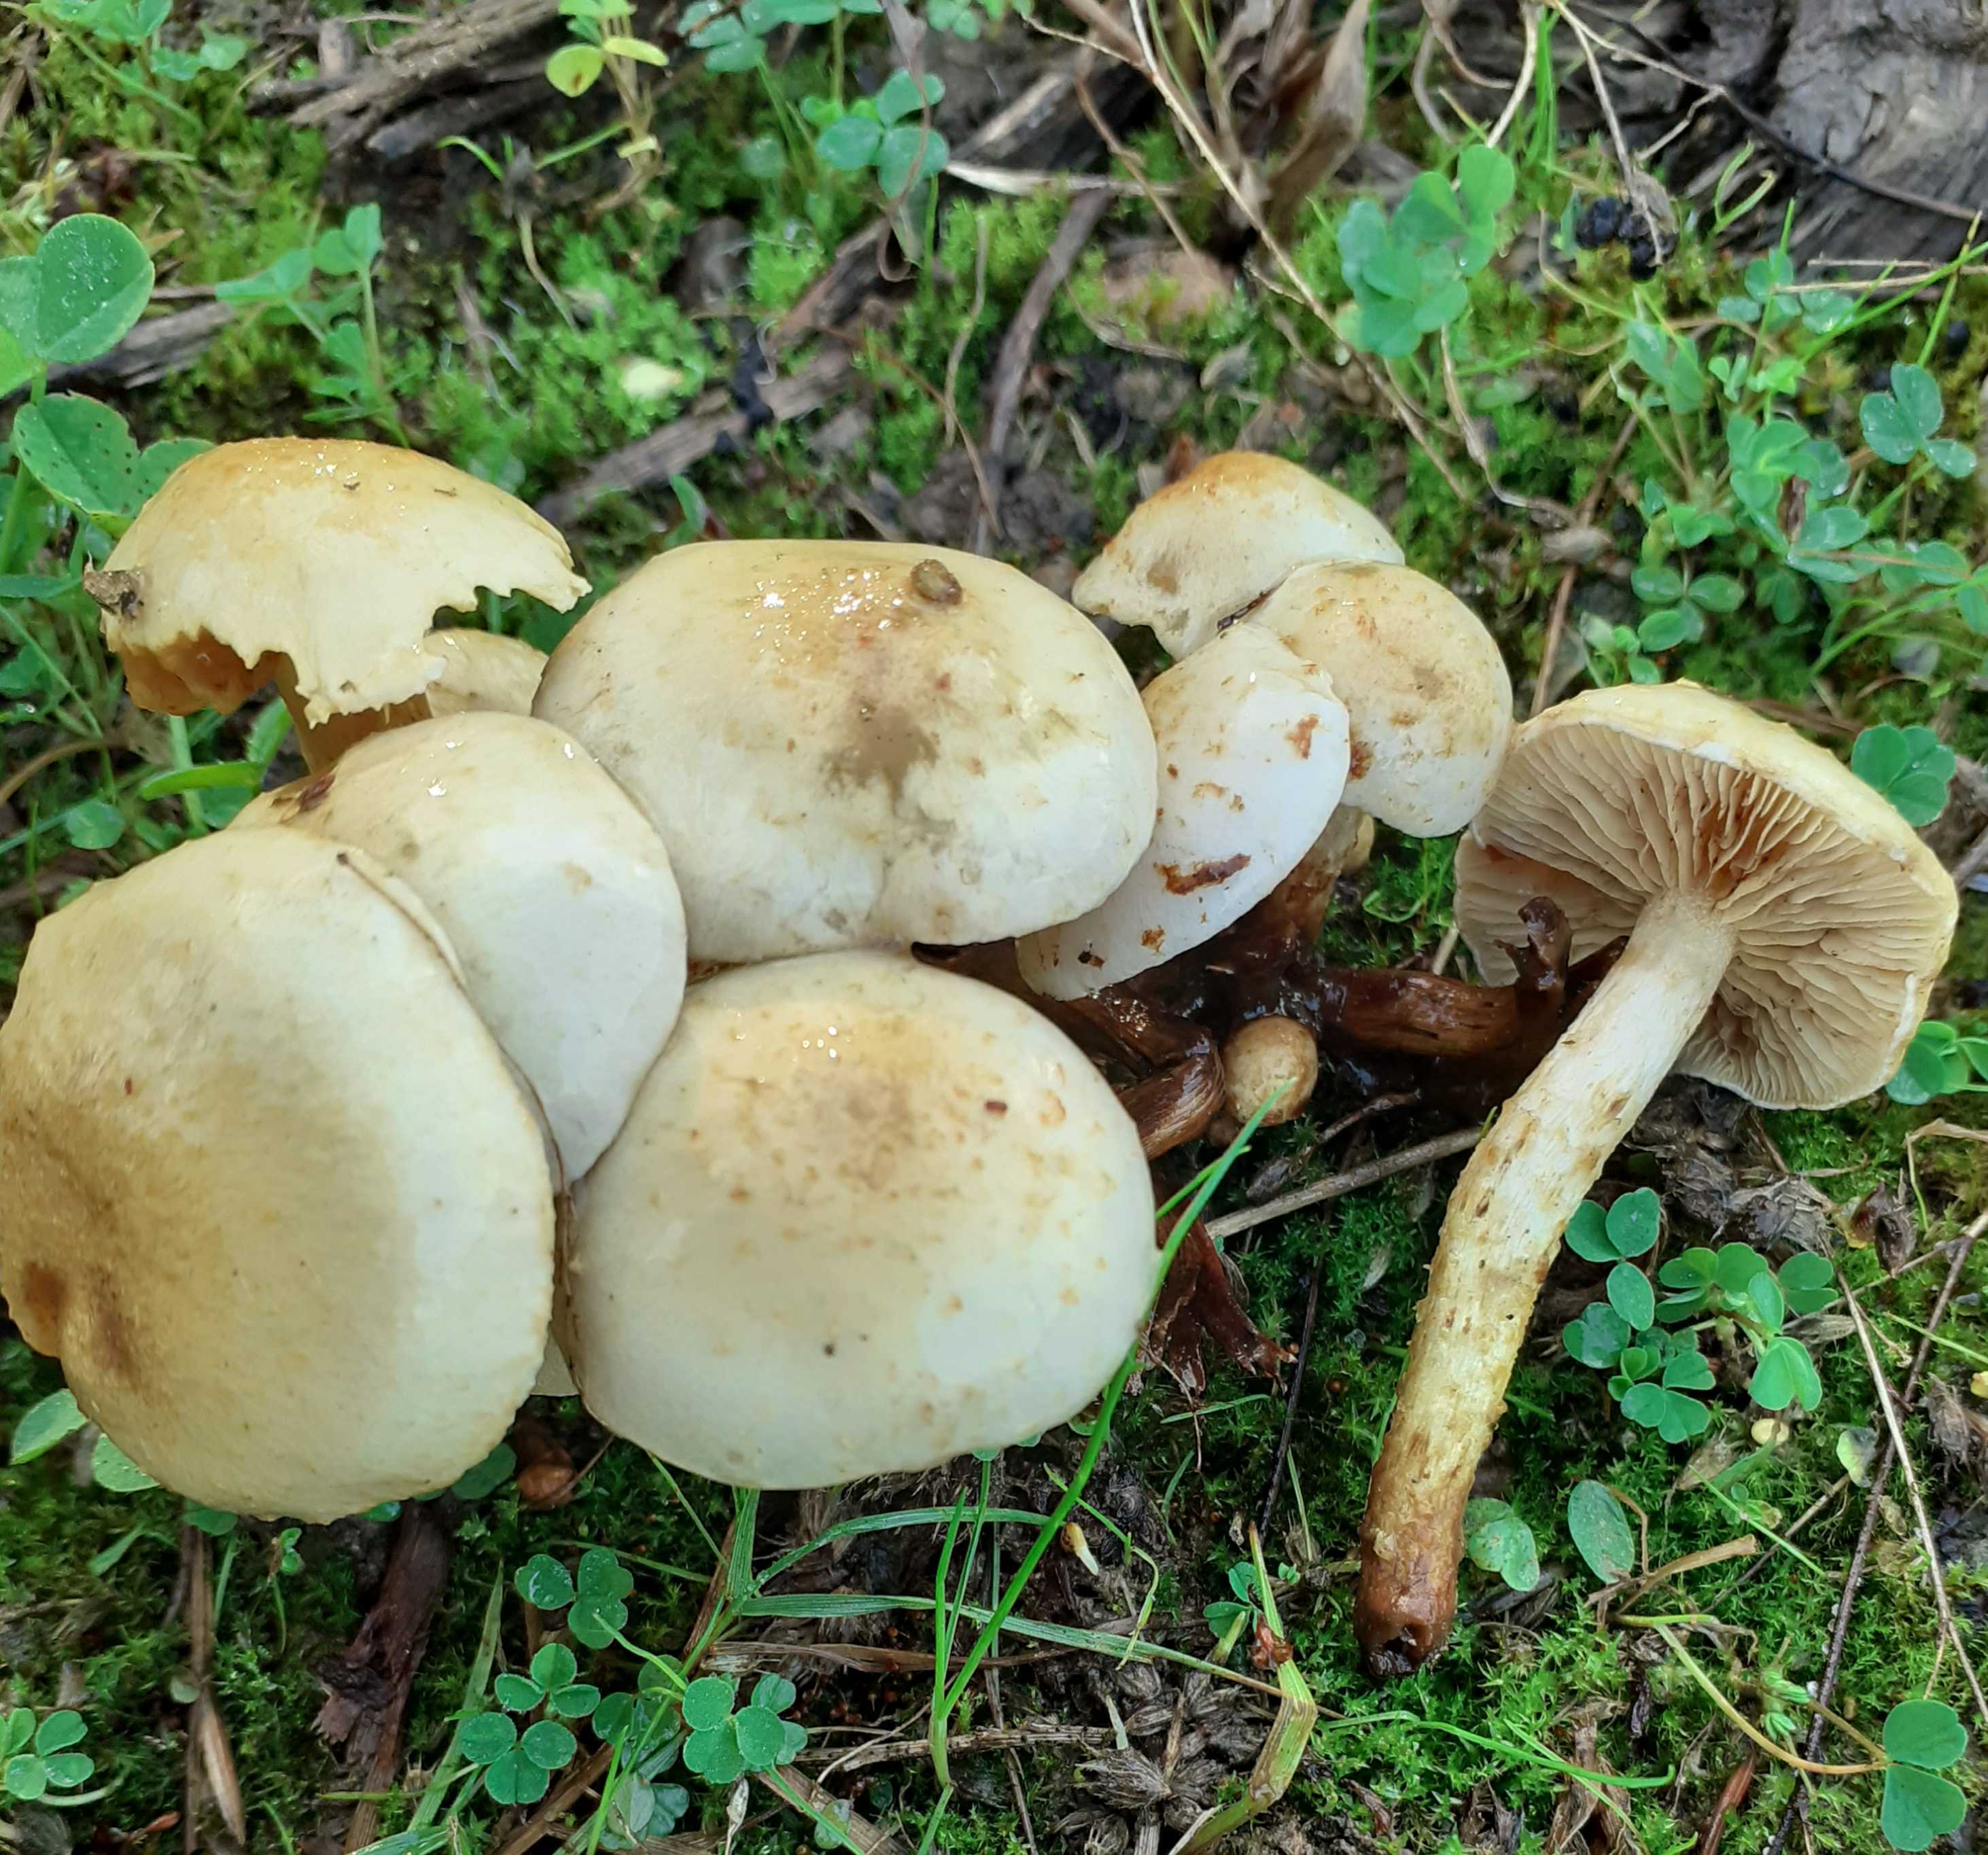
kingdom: Fungi
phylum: Basidiomycota
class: Agaricomycetes
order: Agaricales
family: Strophariaceae
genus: Pholiota
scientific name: Pholiota gummosa
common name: grøngul skælhat
